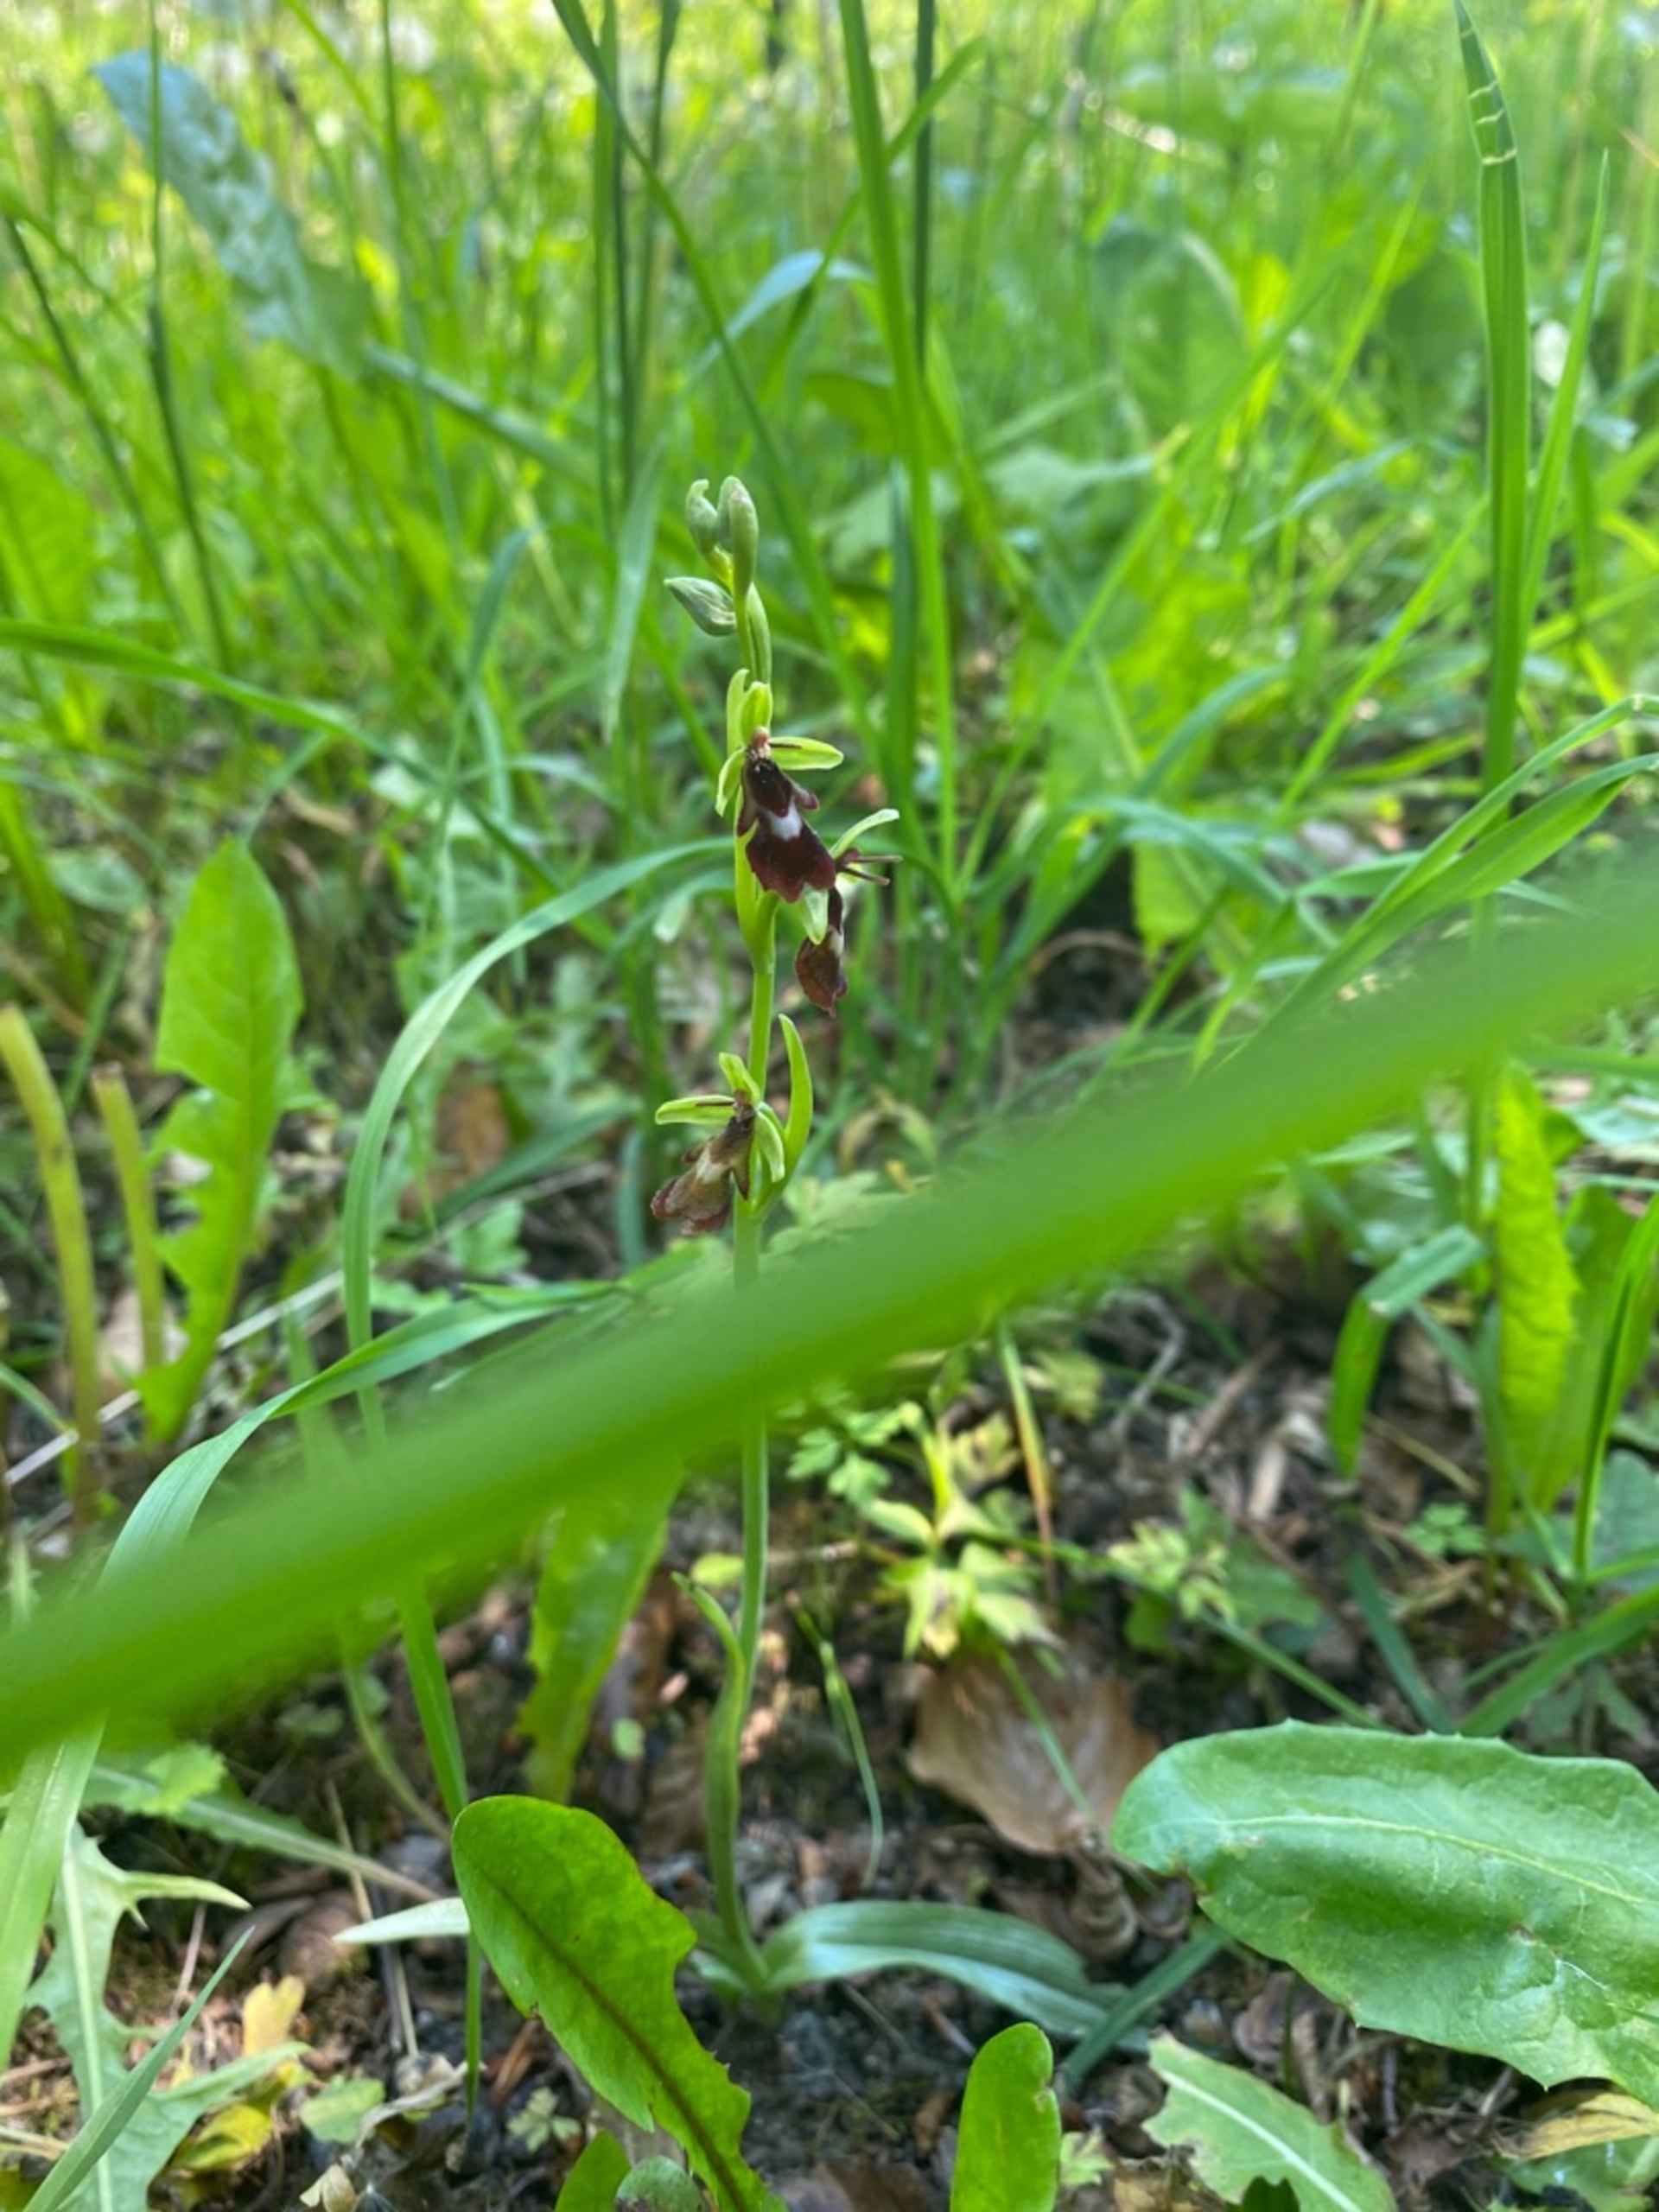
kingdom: Plantae
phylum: Tracheophyta
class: Liliopsida
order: Asparagales
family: Orchidaceae
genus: Ophrys
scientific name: Ophrys insectifera
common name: Flueblomst
